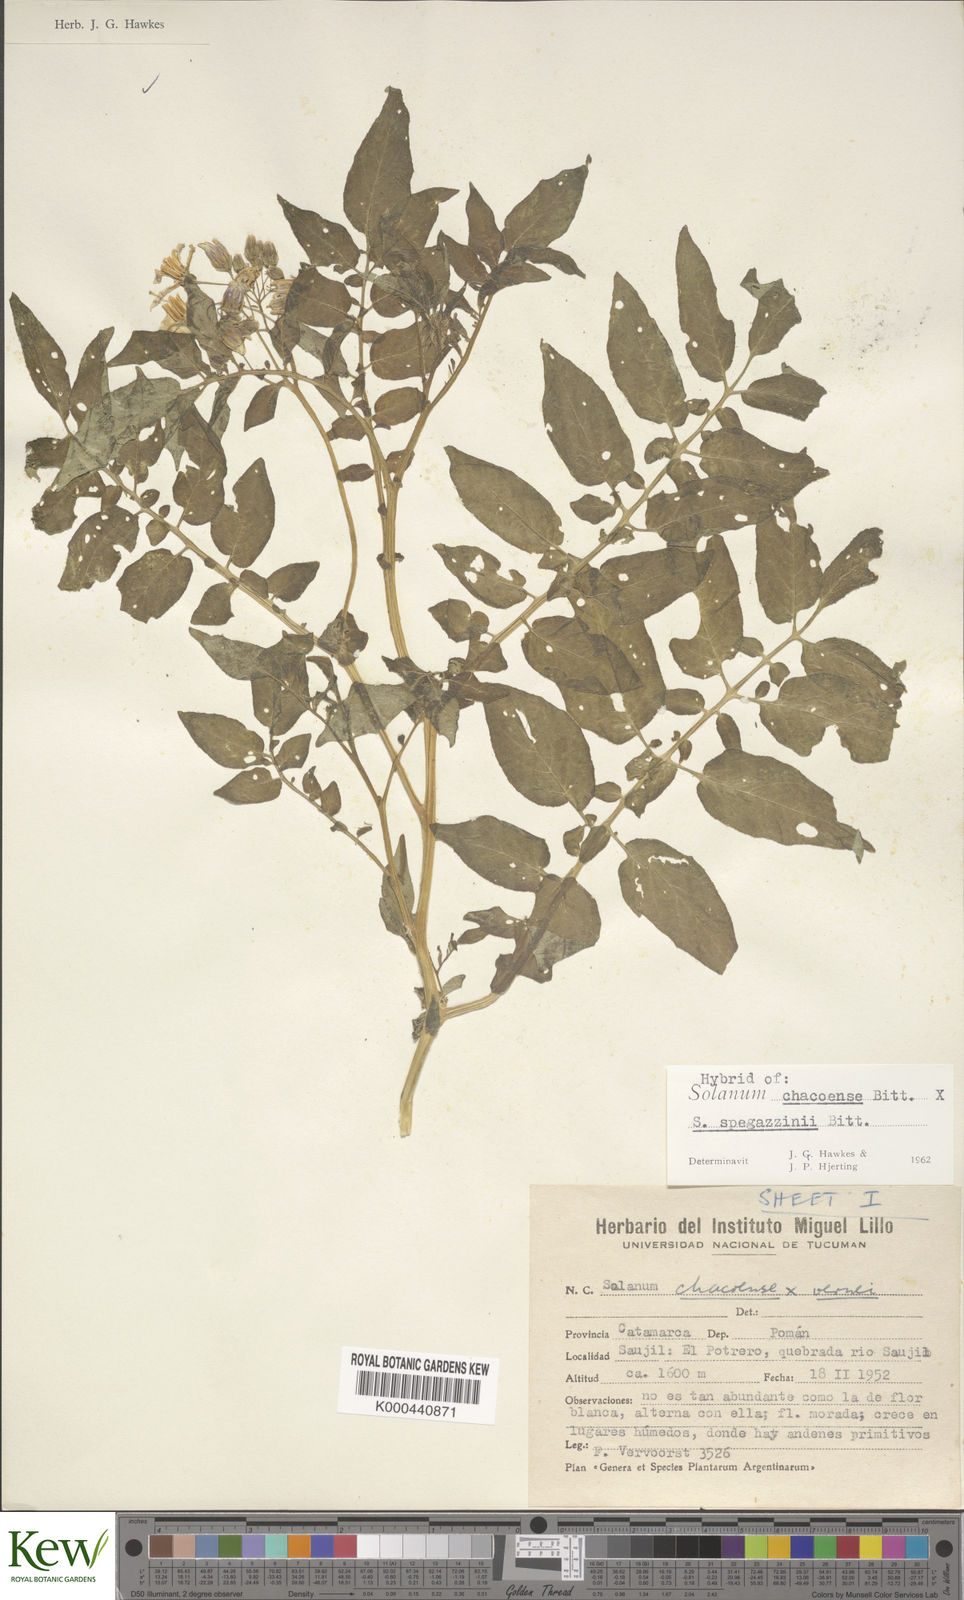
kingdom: Plantae
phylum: Tracheophyta
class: Magnoliopsida
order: Solanales
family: Solanaceae
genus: Solanum
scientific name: Solanum chacoense
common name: Chaco potato
